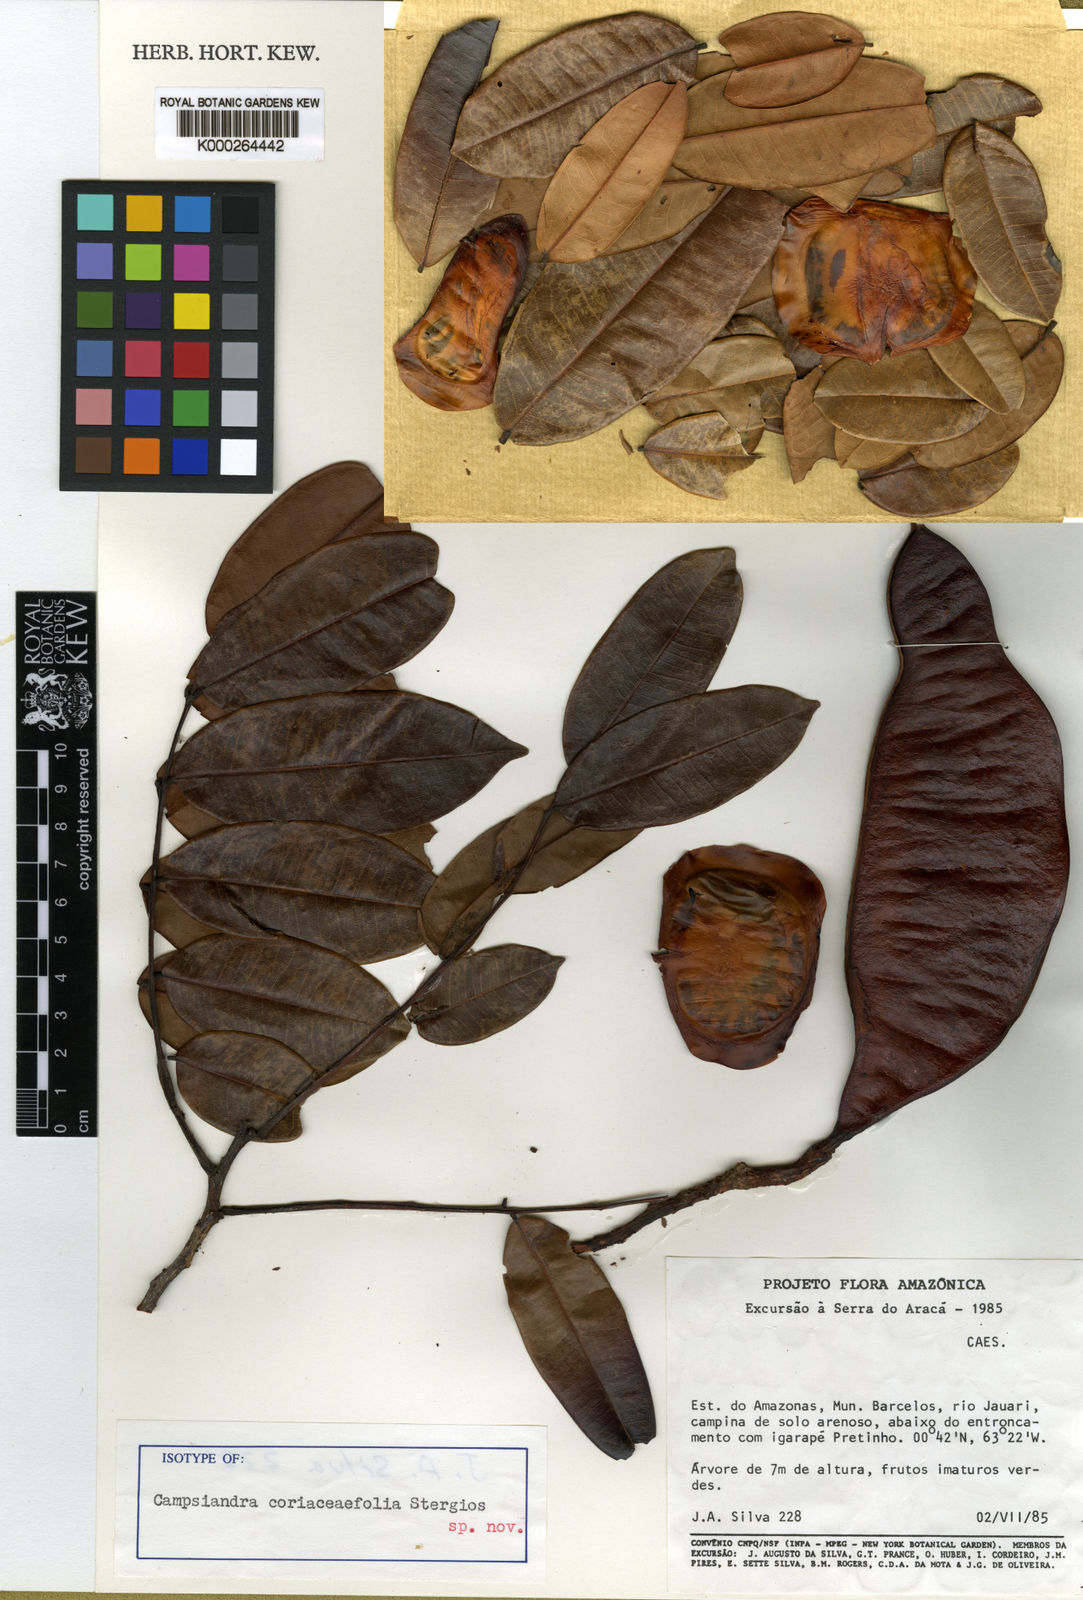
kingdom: Plantae
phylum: Tracheophyta
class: Magnoliopsida
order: Fabales
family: Fabaceae
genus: Campsiandra
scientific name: Campsiandra
